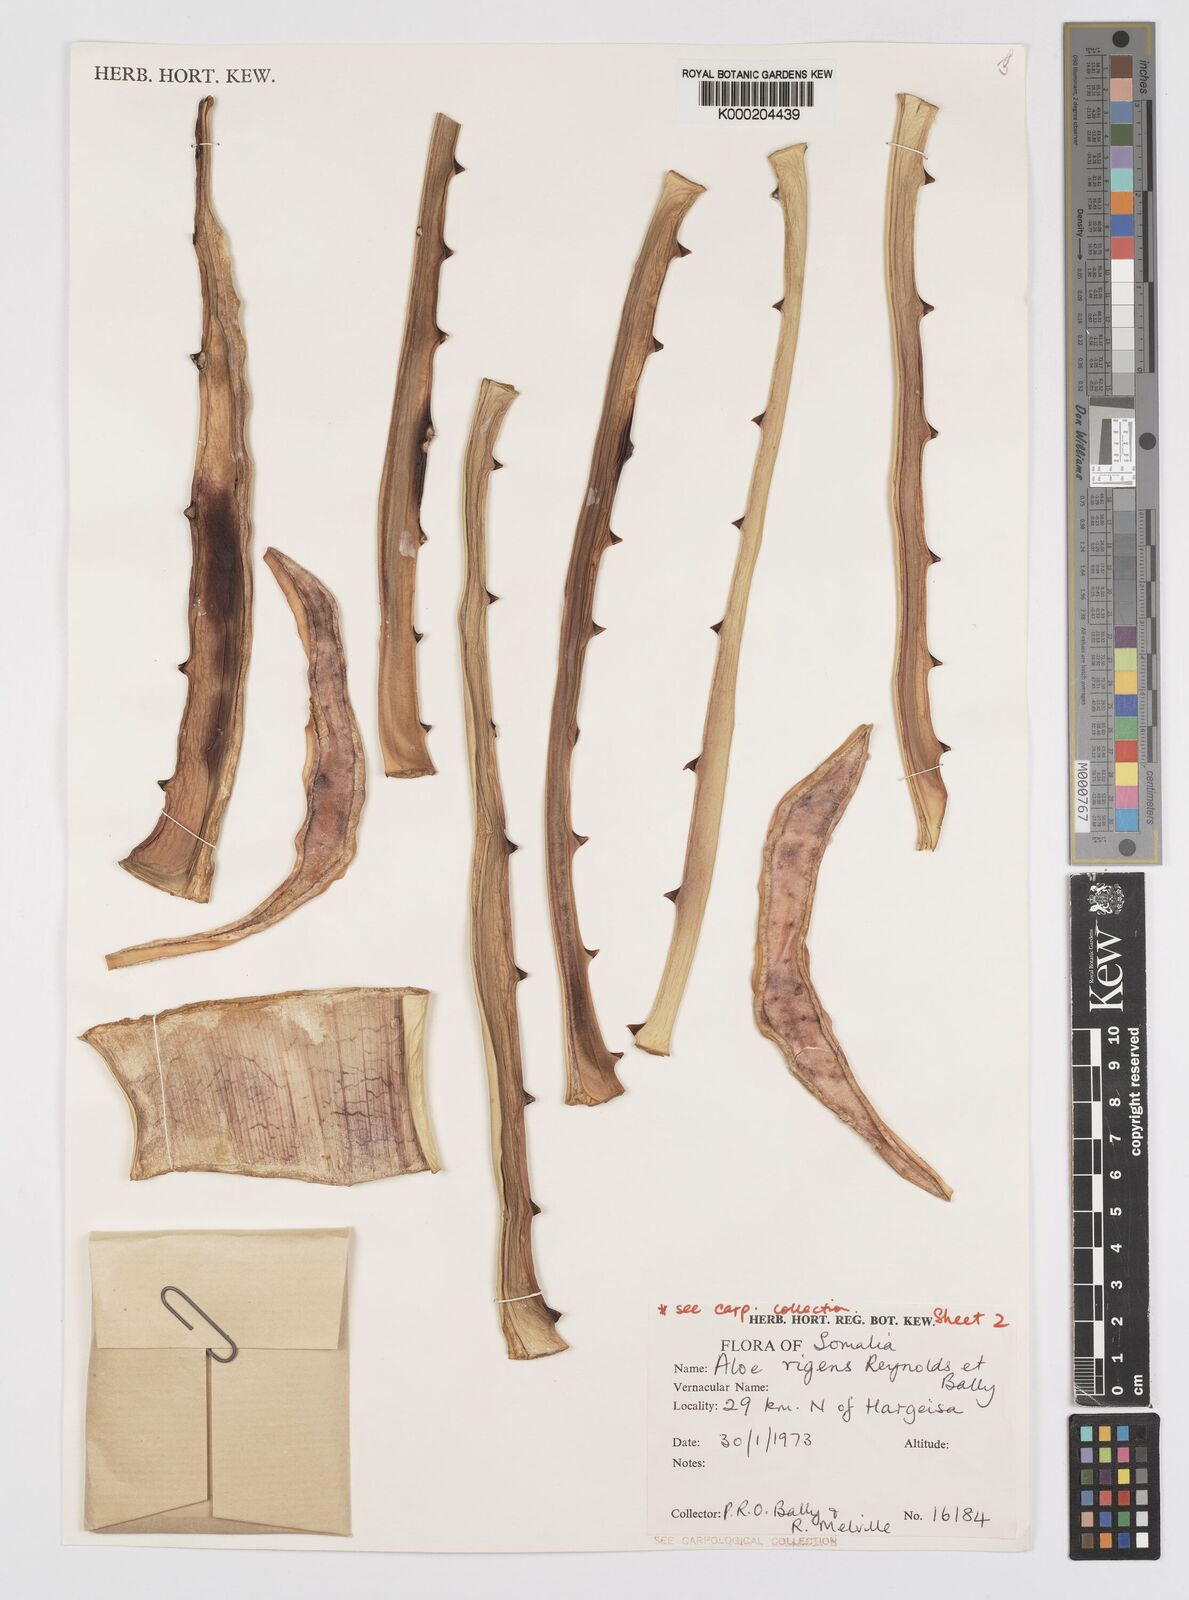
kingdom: Plantae
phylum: Tracheophyta
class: Liliopsida
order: Asparagales
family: Asphodelaceae
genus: Aloe
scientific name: Aloe rigens
